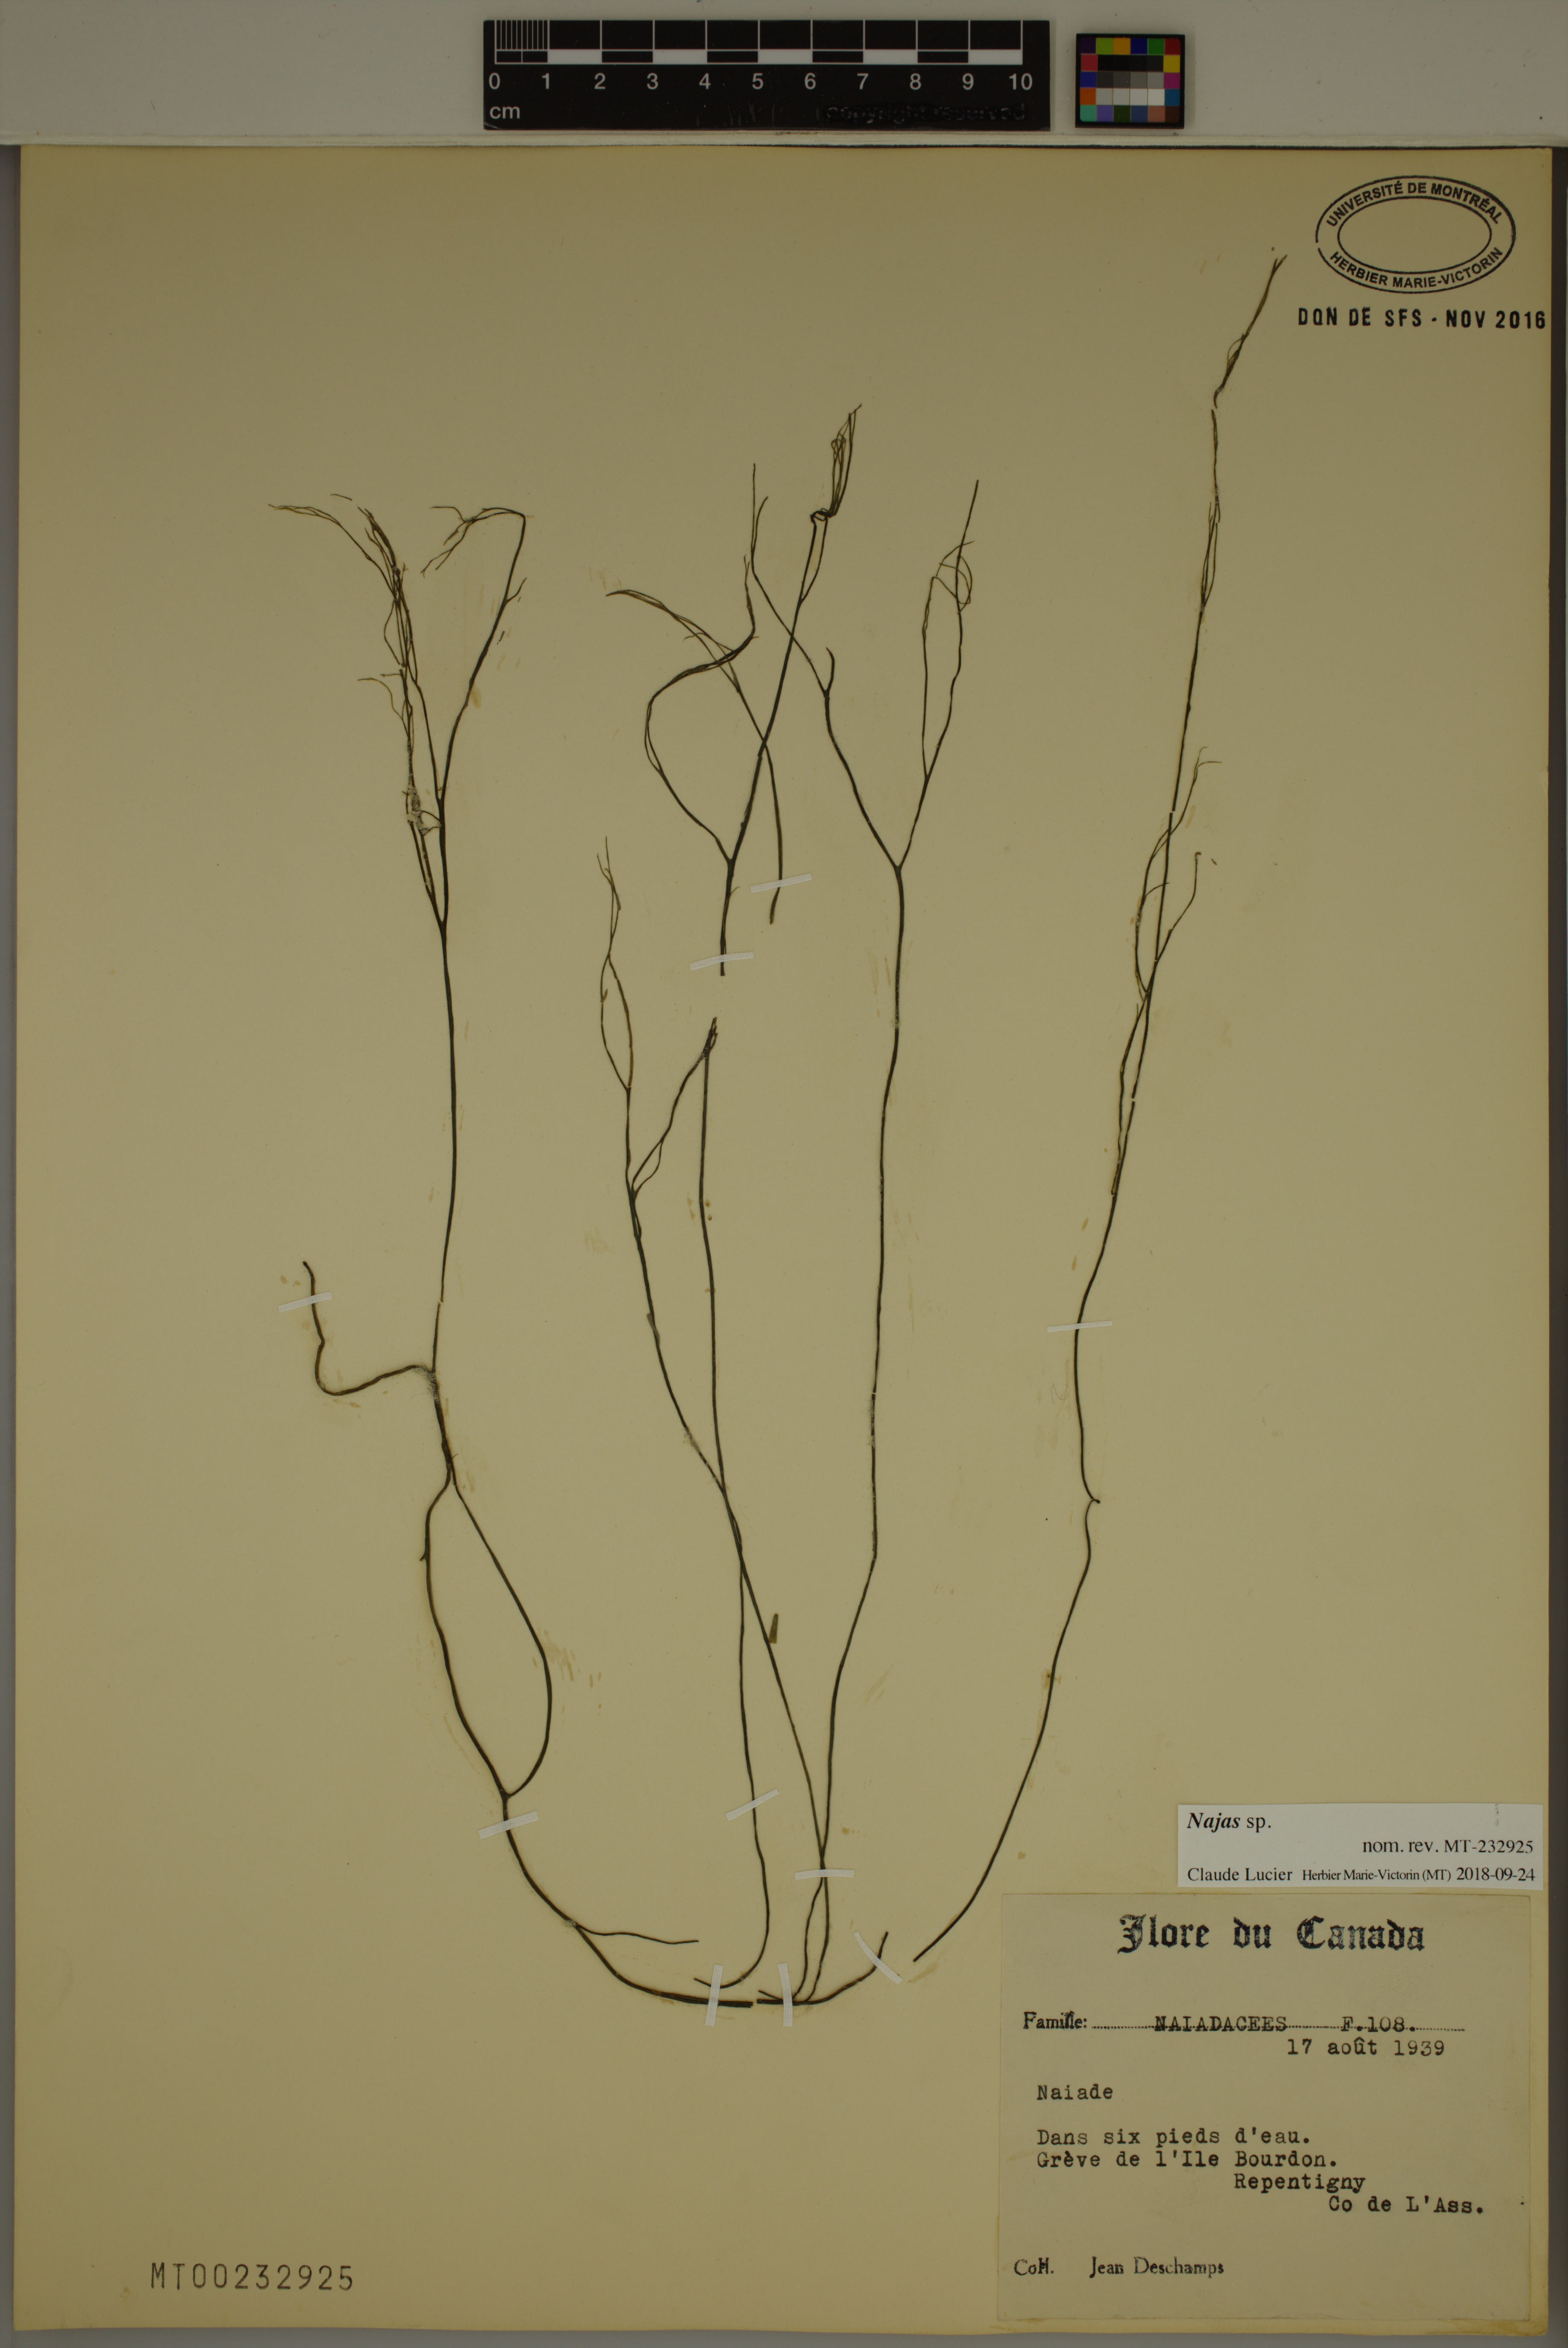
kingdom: Plantae
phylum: Tracheophyta
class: Liliopsida
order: Alismatales
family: Hydrocharitaceae
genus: Najas
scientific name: Najas
